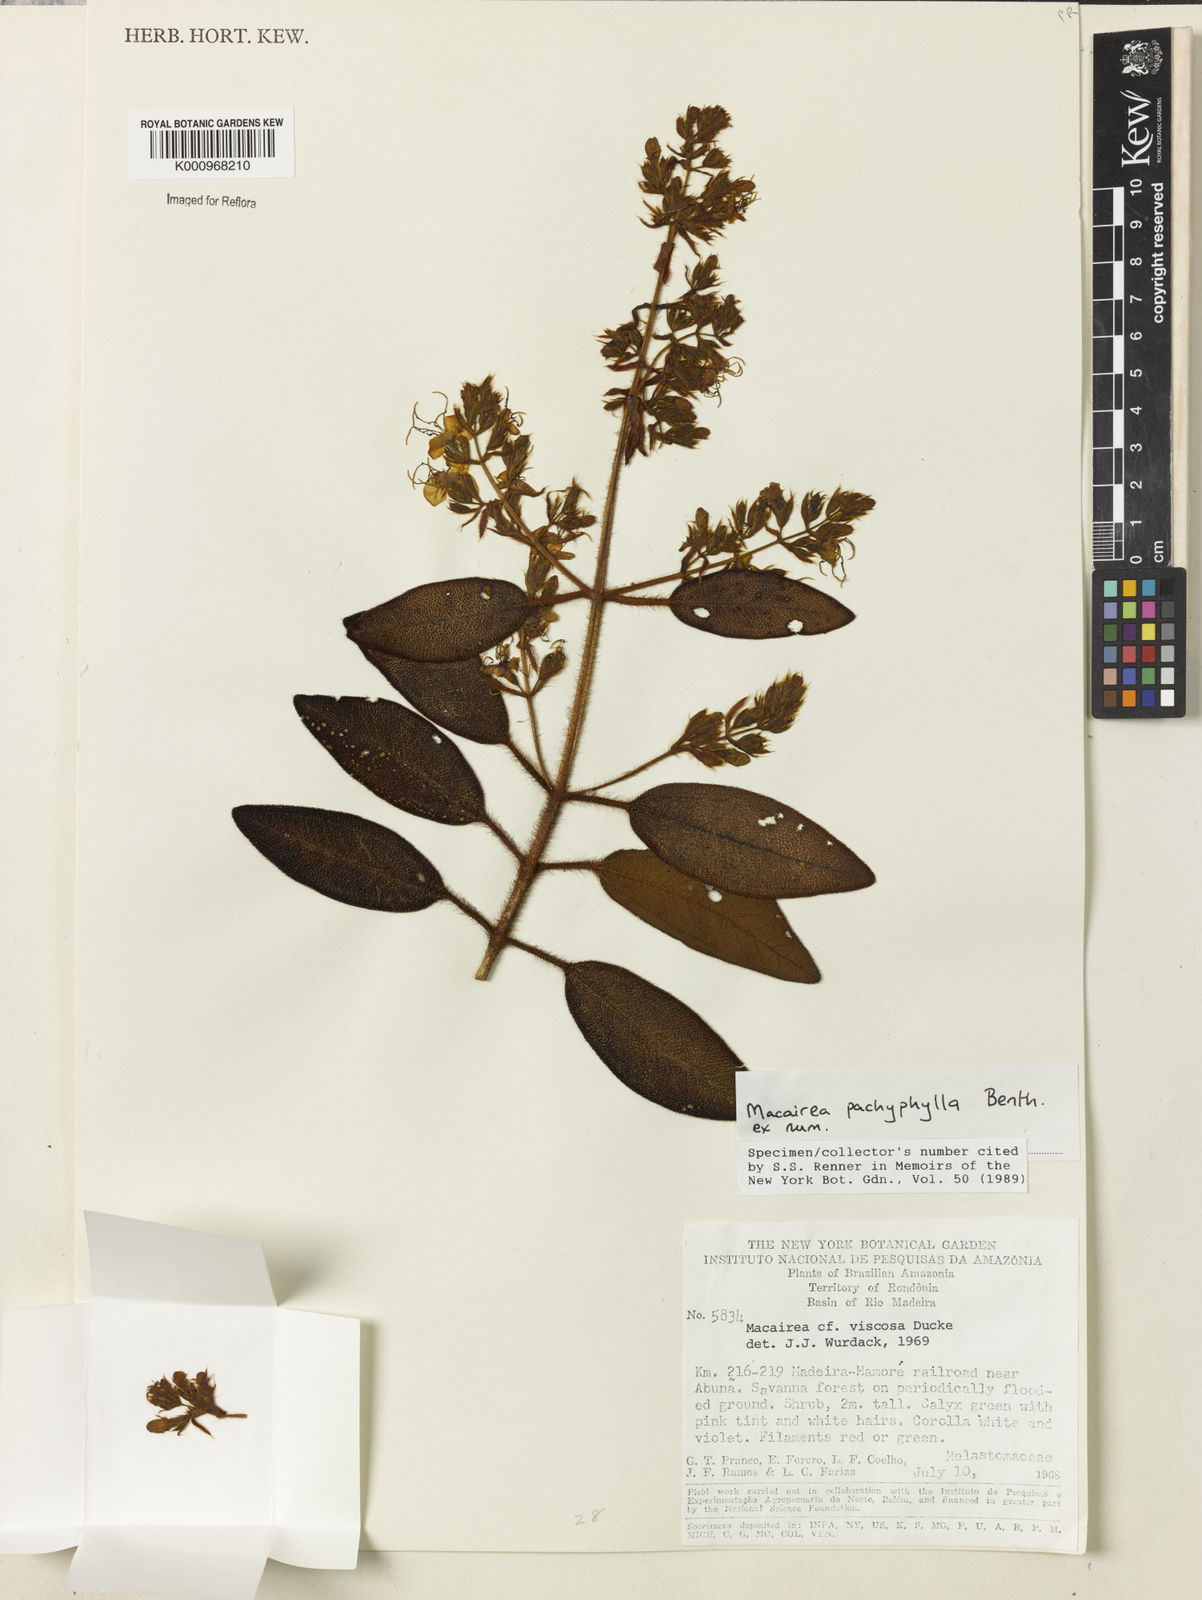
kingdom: Plantae
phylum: Tracheophyta
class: Magnoliopsida
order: Myrtales
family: Melastomataceae
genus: Macairea
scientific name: Macairea pachyphylla
